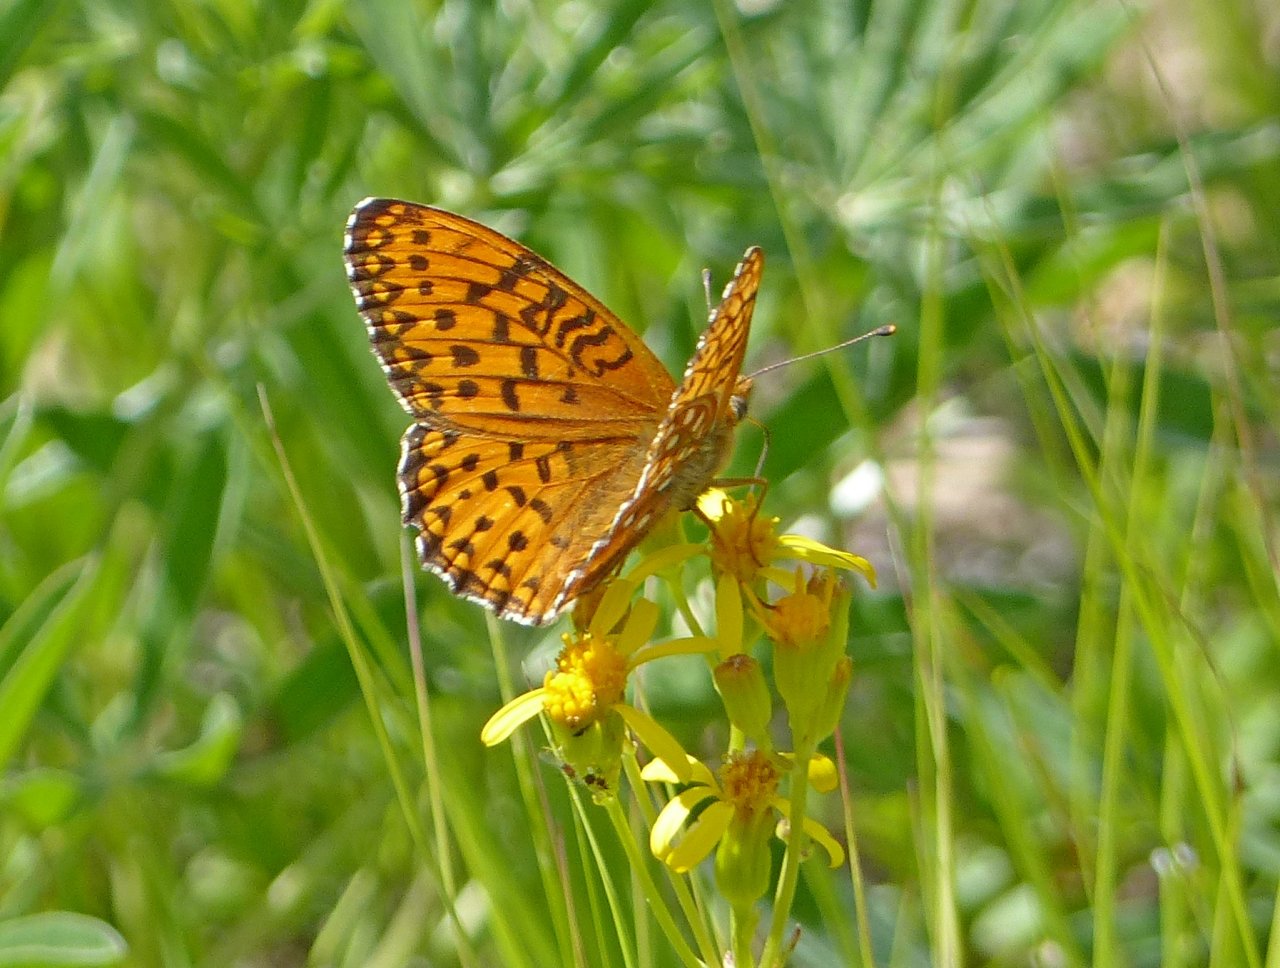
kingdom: Animalia
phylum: Arthropoda
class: Insecta
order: Lepidoptera
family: Nymphalidae
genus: Speyeria
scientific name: Speyeria atlantis
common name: Atlantis Fritillary
